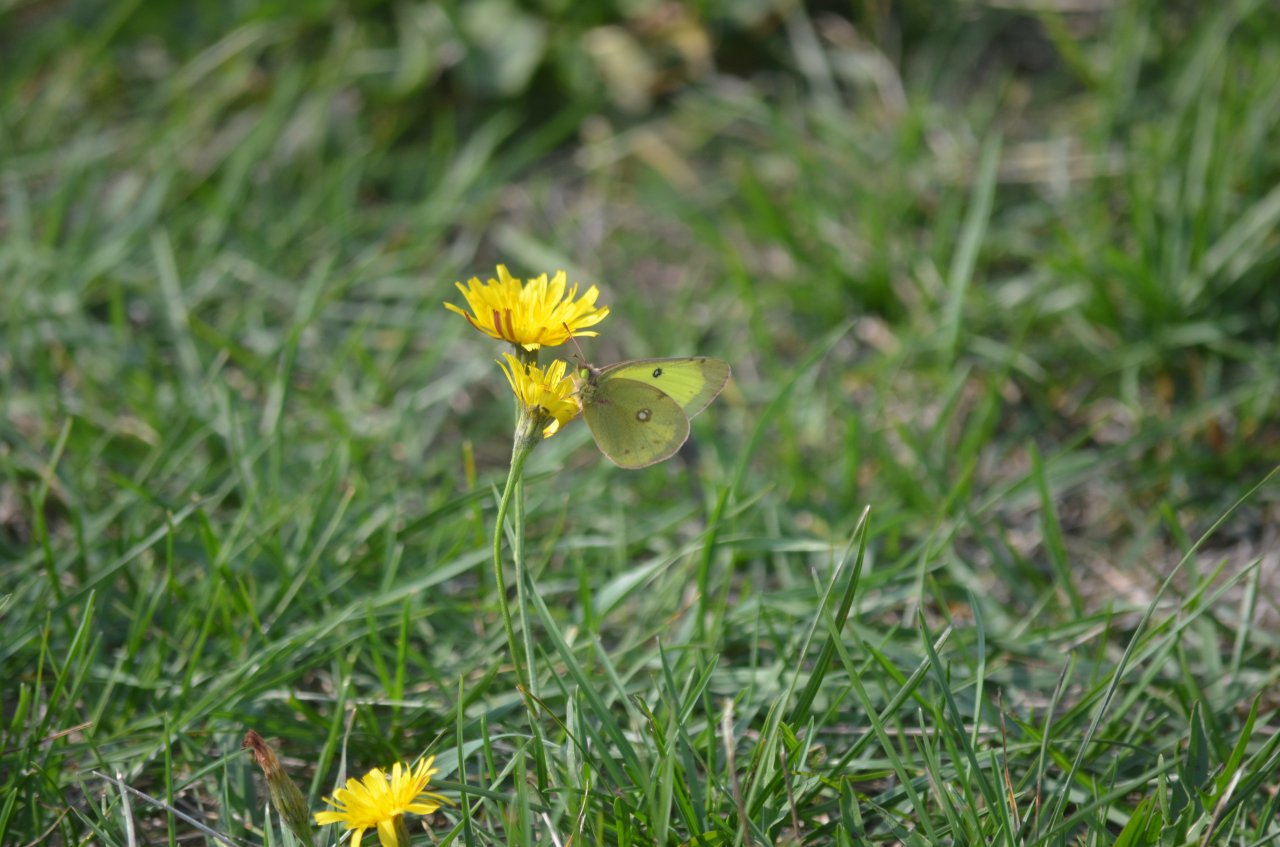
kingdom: Animalia
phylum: Arthropoda
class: Insecta
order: Lepidoptera
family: Pieridae
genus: Colias
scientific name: Colias philodice
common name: Clouded Sulphur
